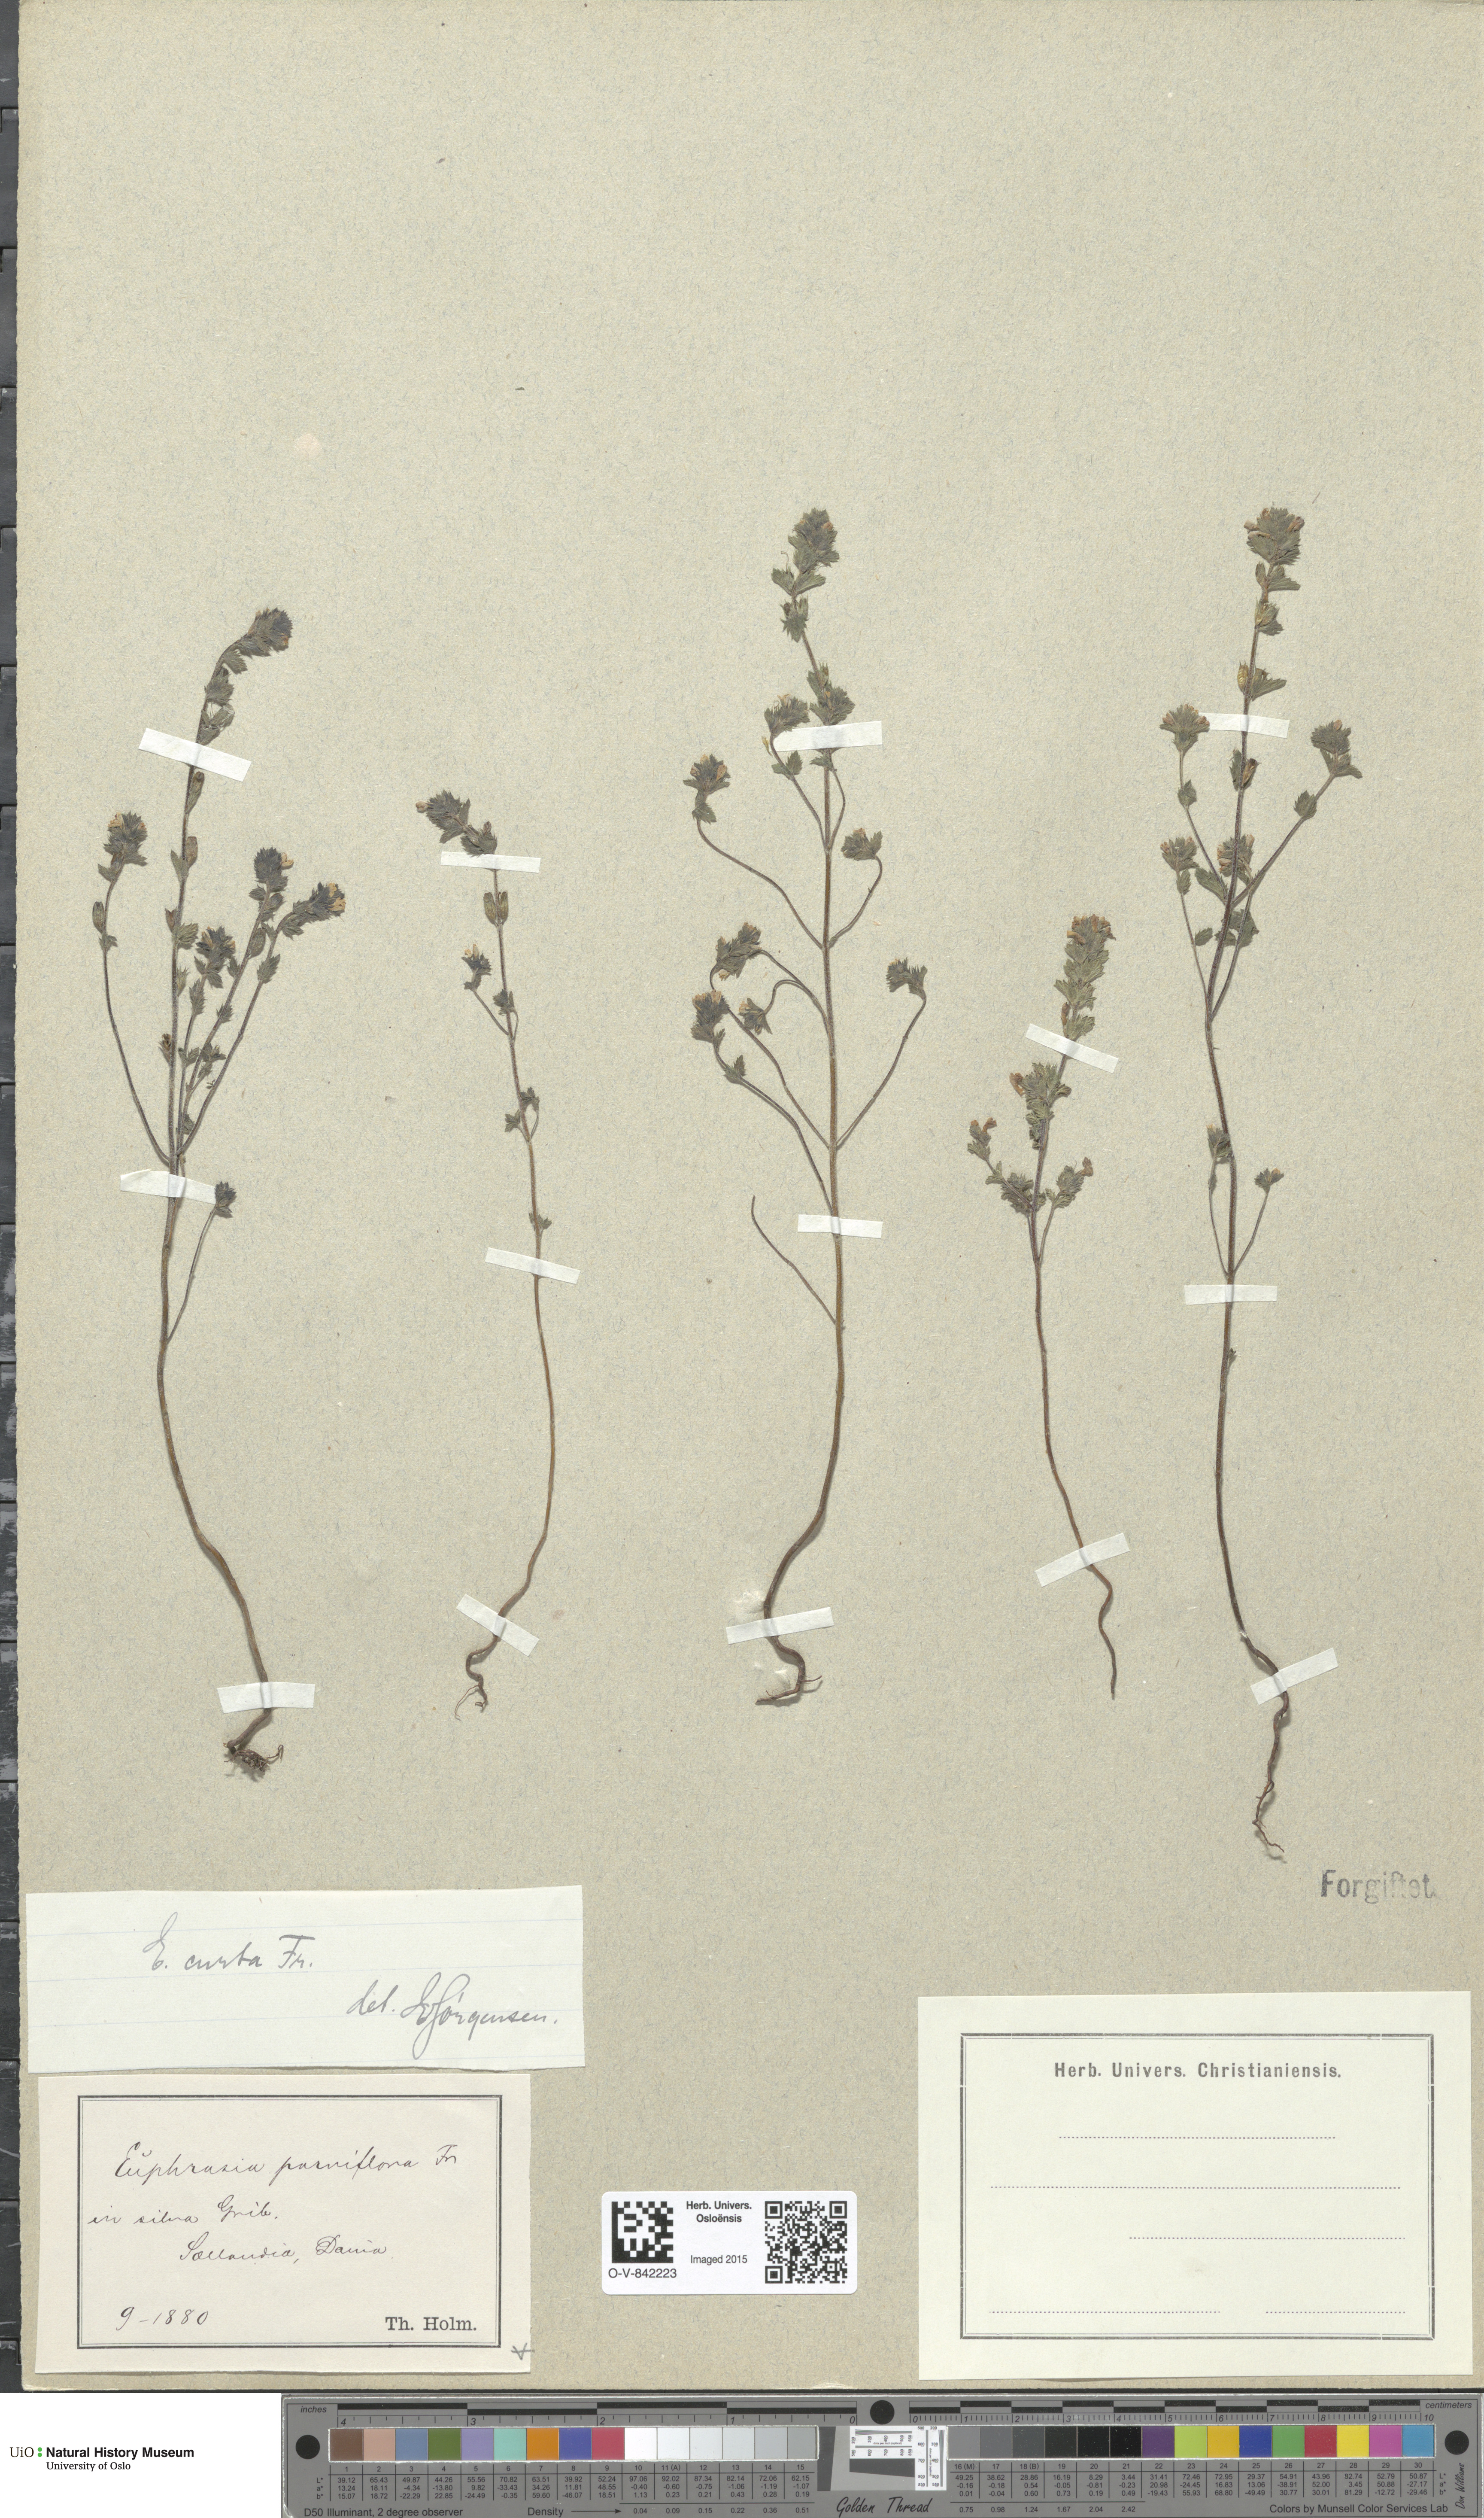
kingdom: Plantae
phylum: Tracheophyta
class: Magnoliopsida
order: Lamiales
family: Orobanchaceae
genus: Euphrasia
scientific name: Euphrasia micrantha
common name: Northern eyebright
